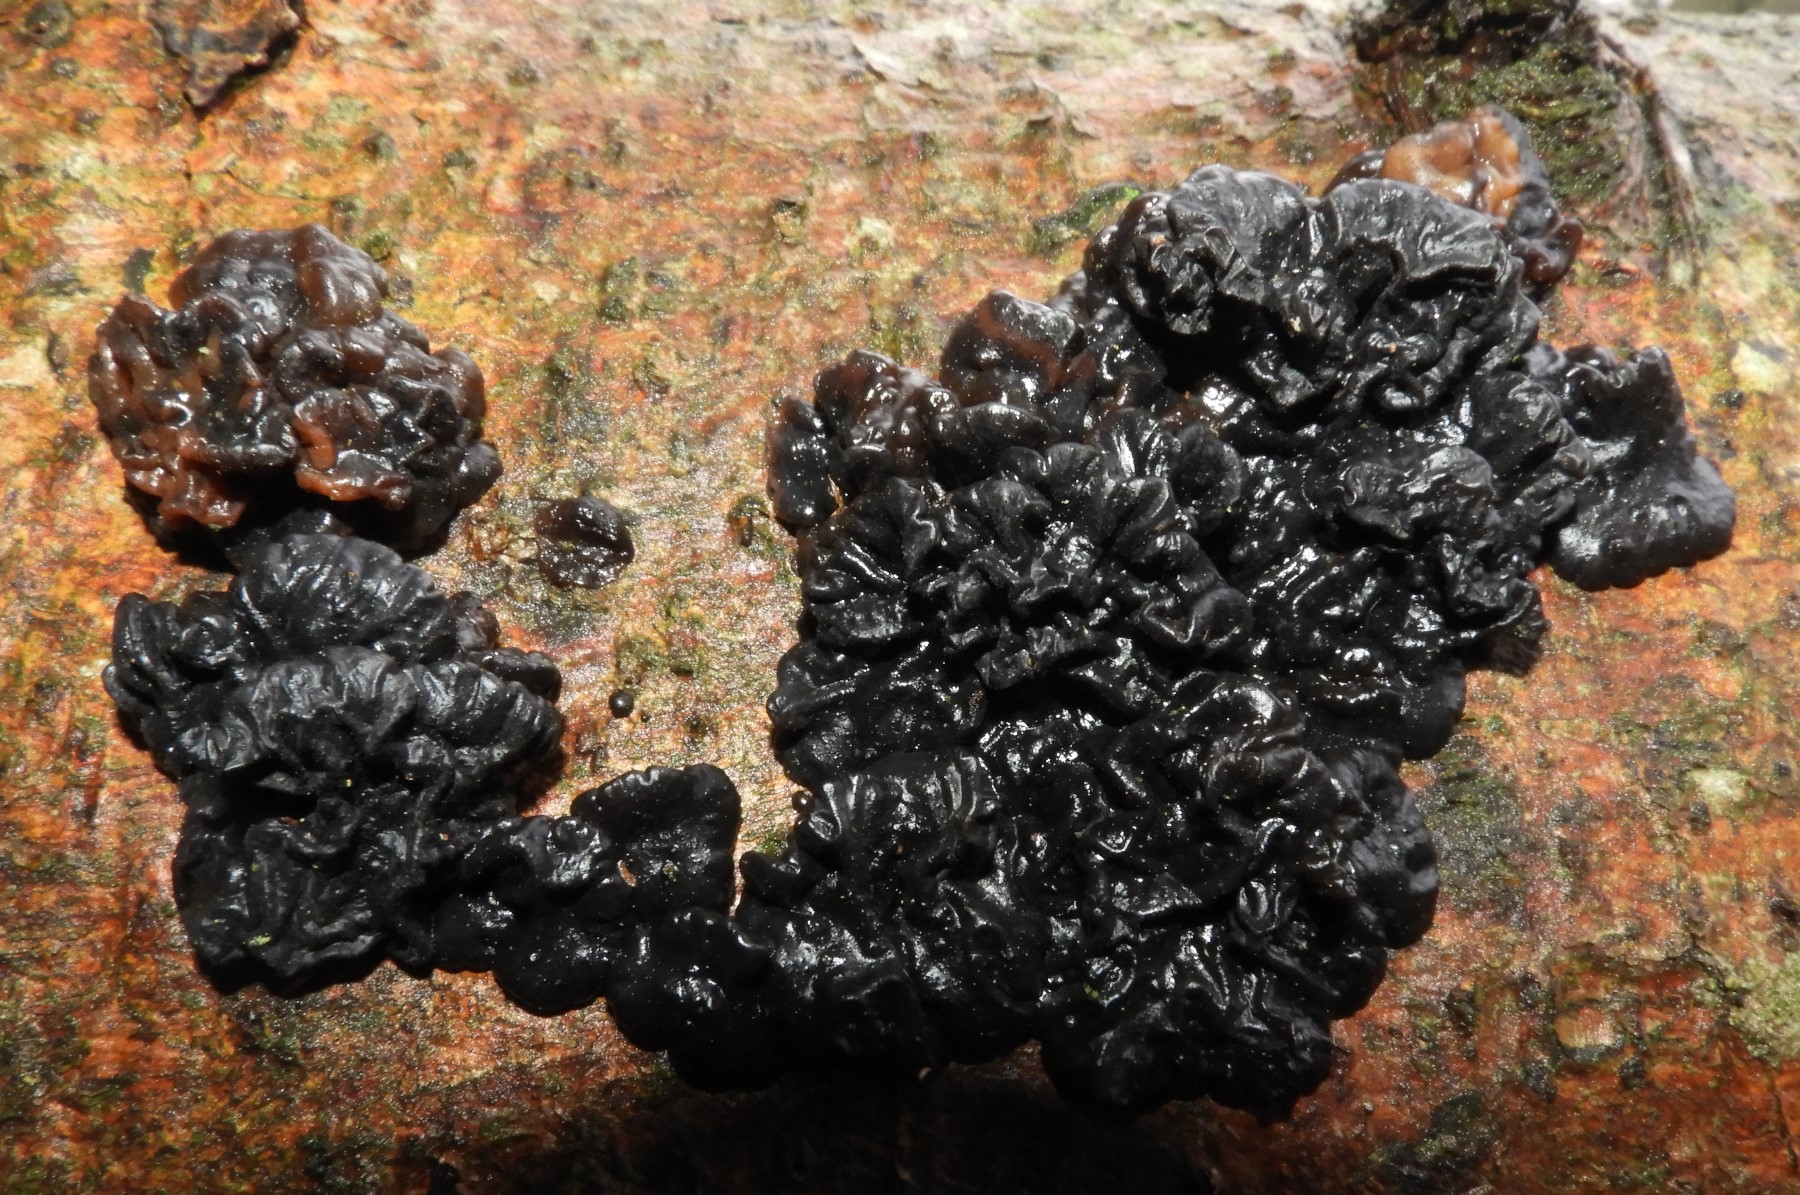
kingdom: Fungi
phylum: Basidiomycota
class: Agaricomycetes
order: Auriculariales
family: Auriculariaceae
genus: Exidia
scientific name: Exidia pithya
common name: gran-bævretop
